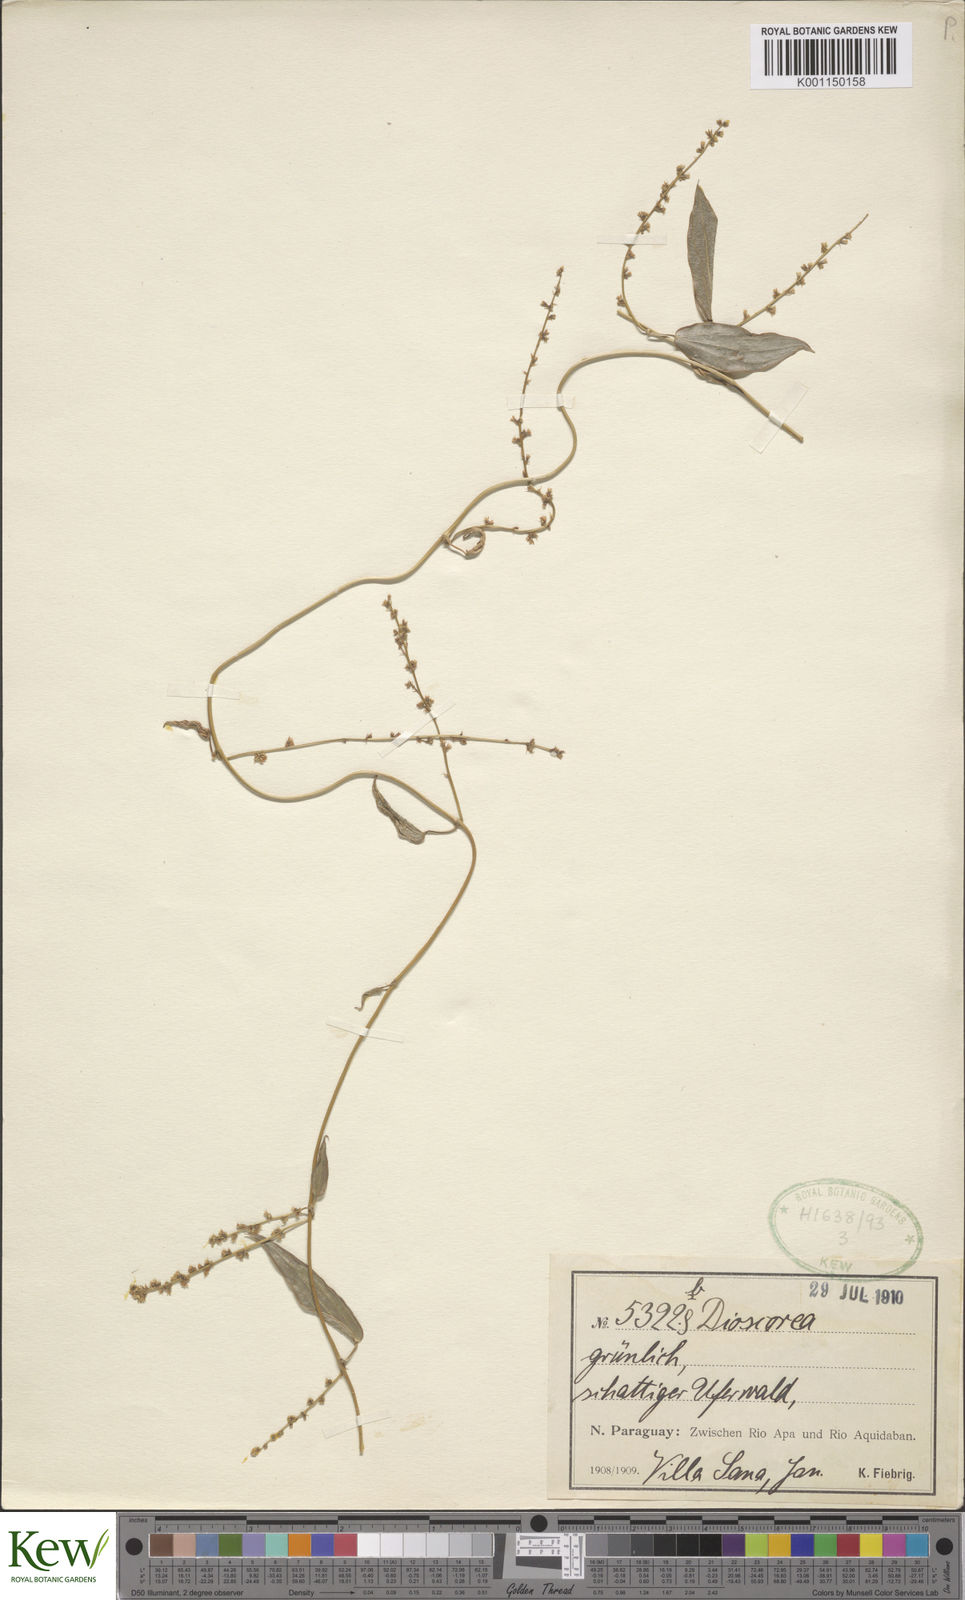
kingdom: Plantae
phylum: Tracheophyta
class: Liliopsida
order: Dioscoreales
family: Dioscoreaceae
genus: Dioscorea
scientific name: Dioscorea
